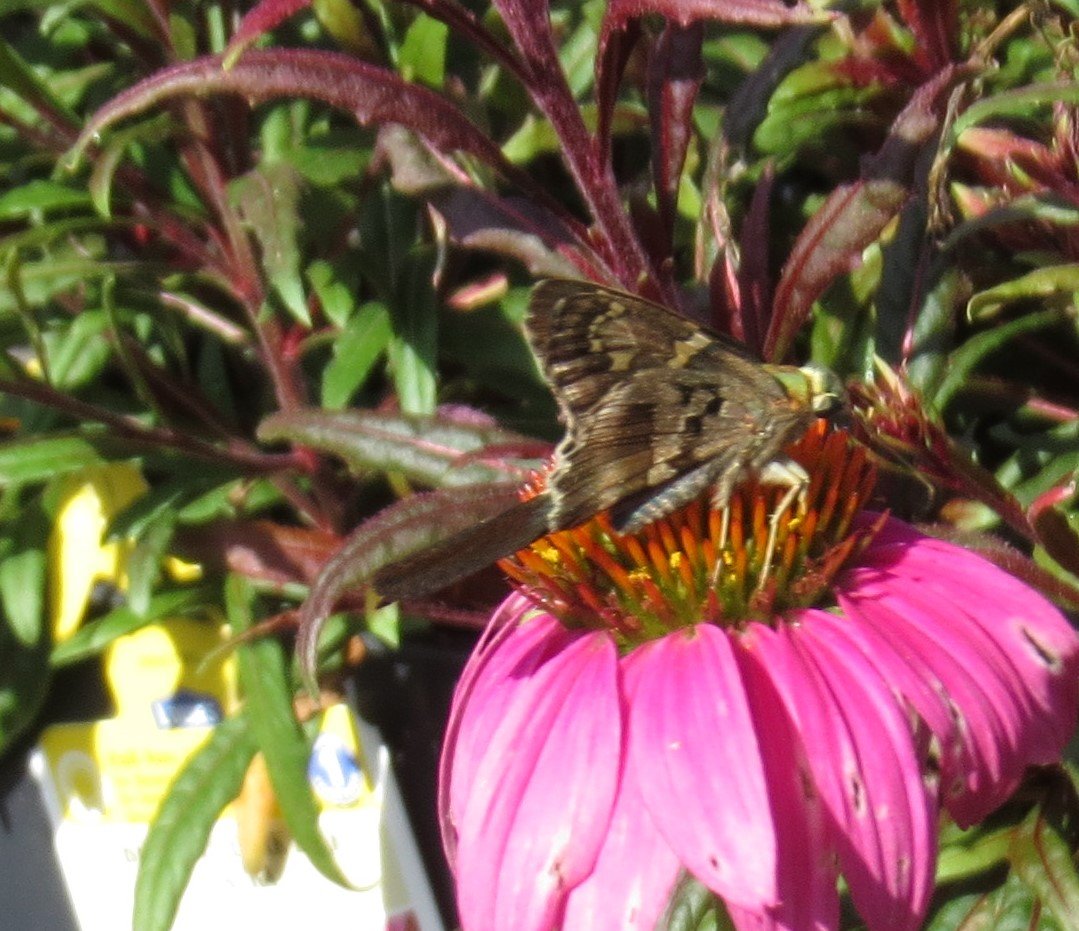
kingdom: Animalia
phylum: Arthropoda
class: Insecta
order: Lepidoptera
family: Hesperiidae
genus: Urbanus
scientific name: Urbanus proteus
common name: Long-tailed Skipper
